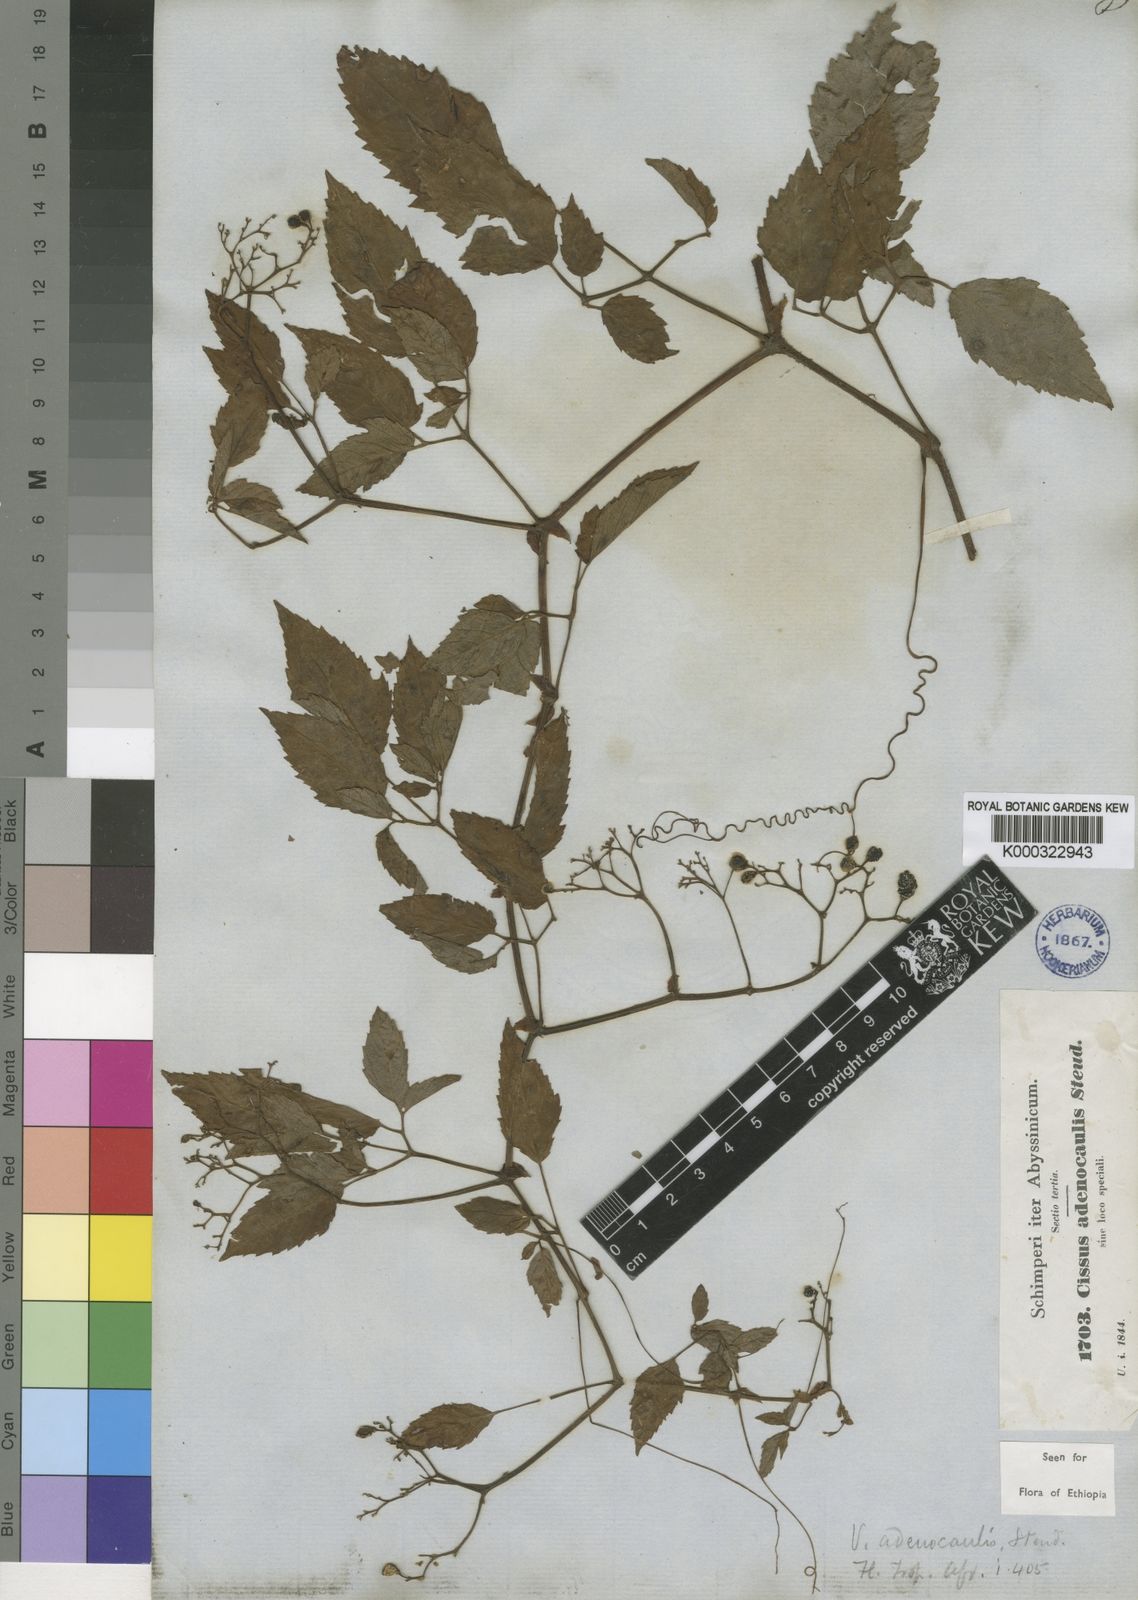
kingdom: Plantae
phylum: Tracheophyta
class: Magnoliopsida
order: Vitales
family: Vitaceae
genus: Cyphostemma
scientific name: Cyphostemma
